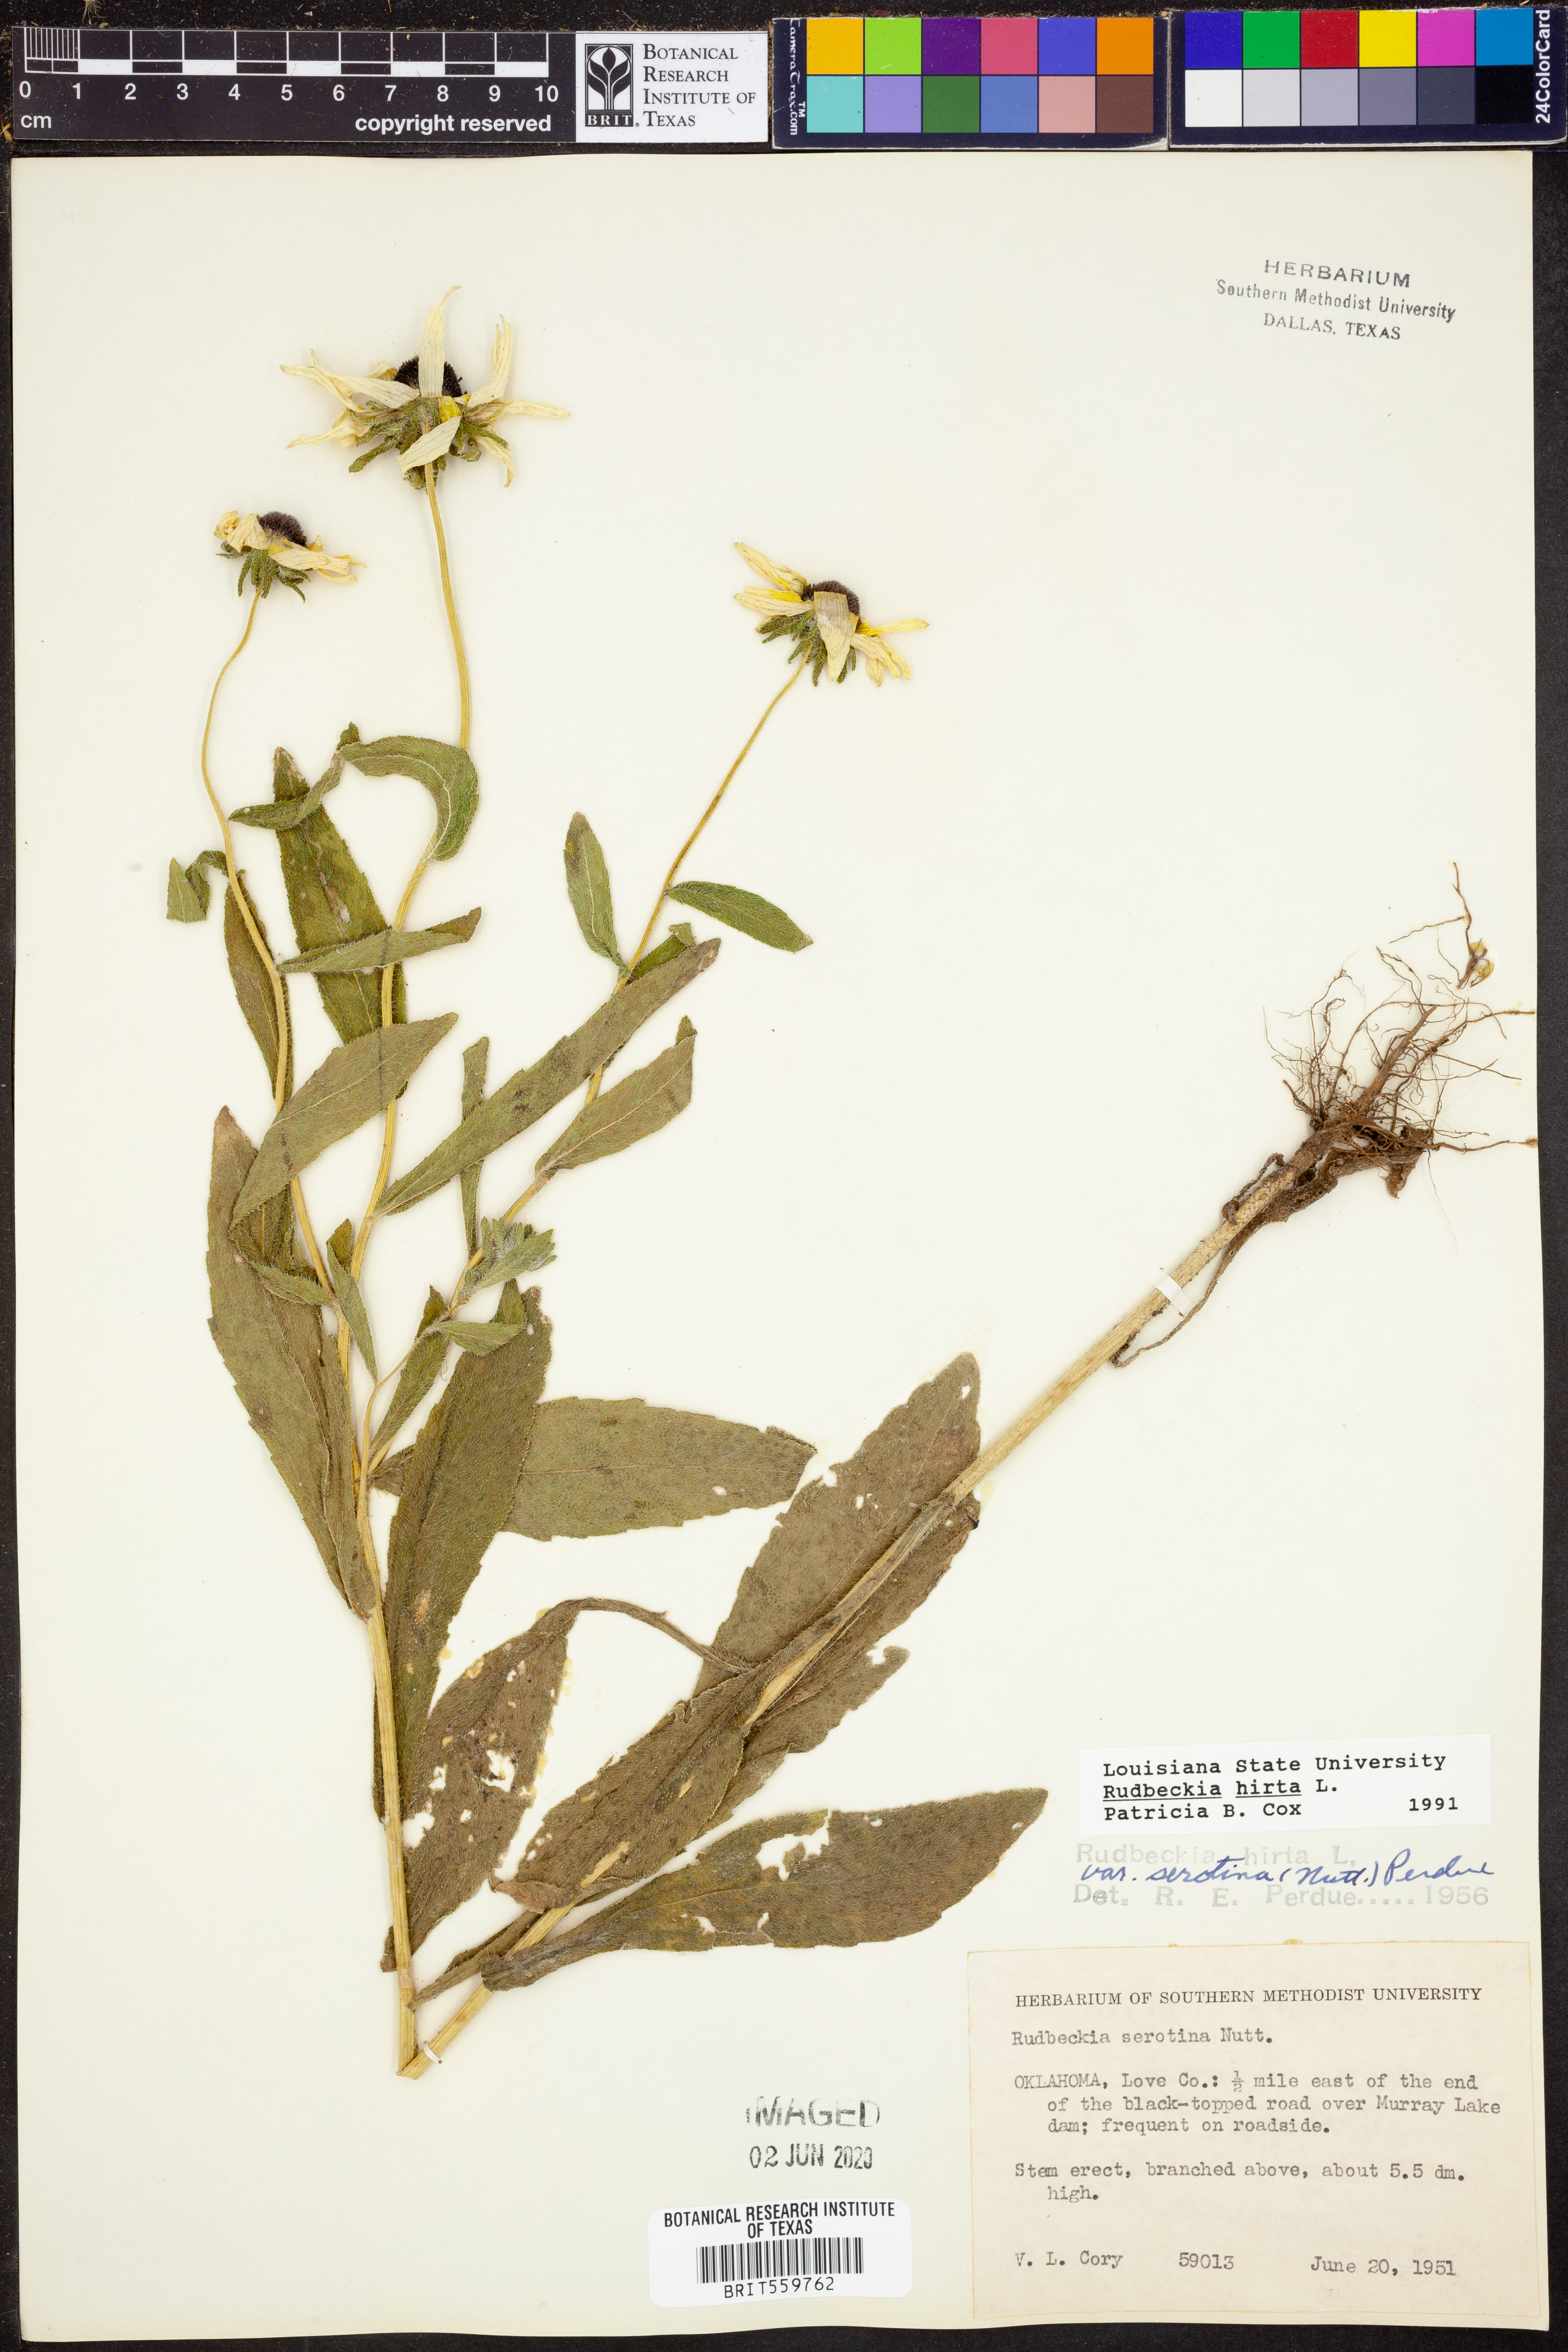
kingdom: Plantae
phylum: Tracheophyta
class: Magnoliopsida
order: Asterales
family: Asteraceae
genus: Rudbeckia
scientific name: Rudbeckia hirta
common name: Black-eyed-susan
